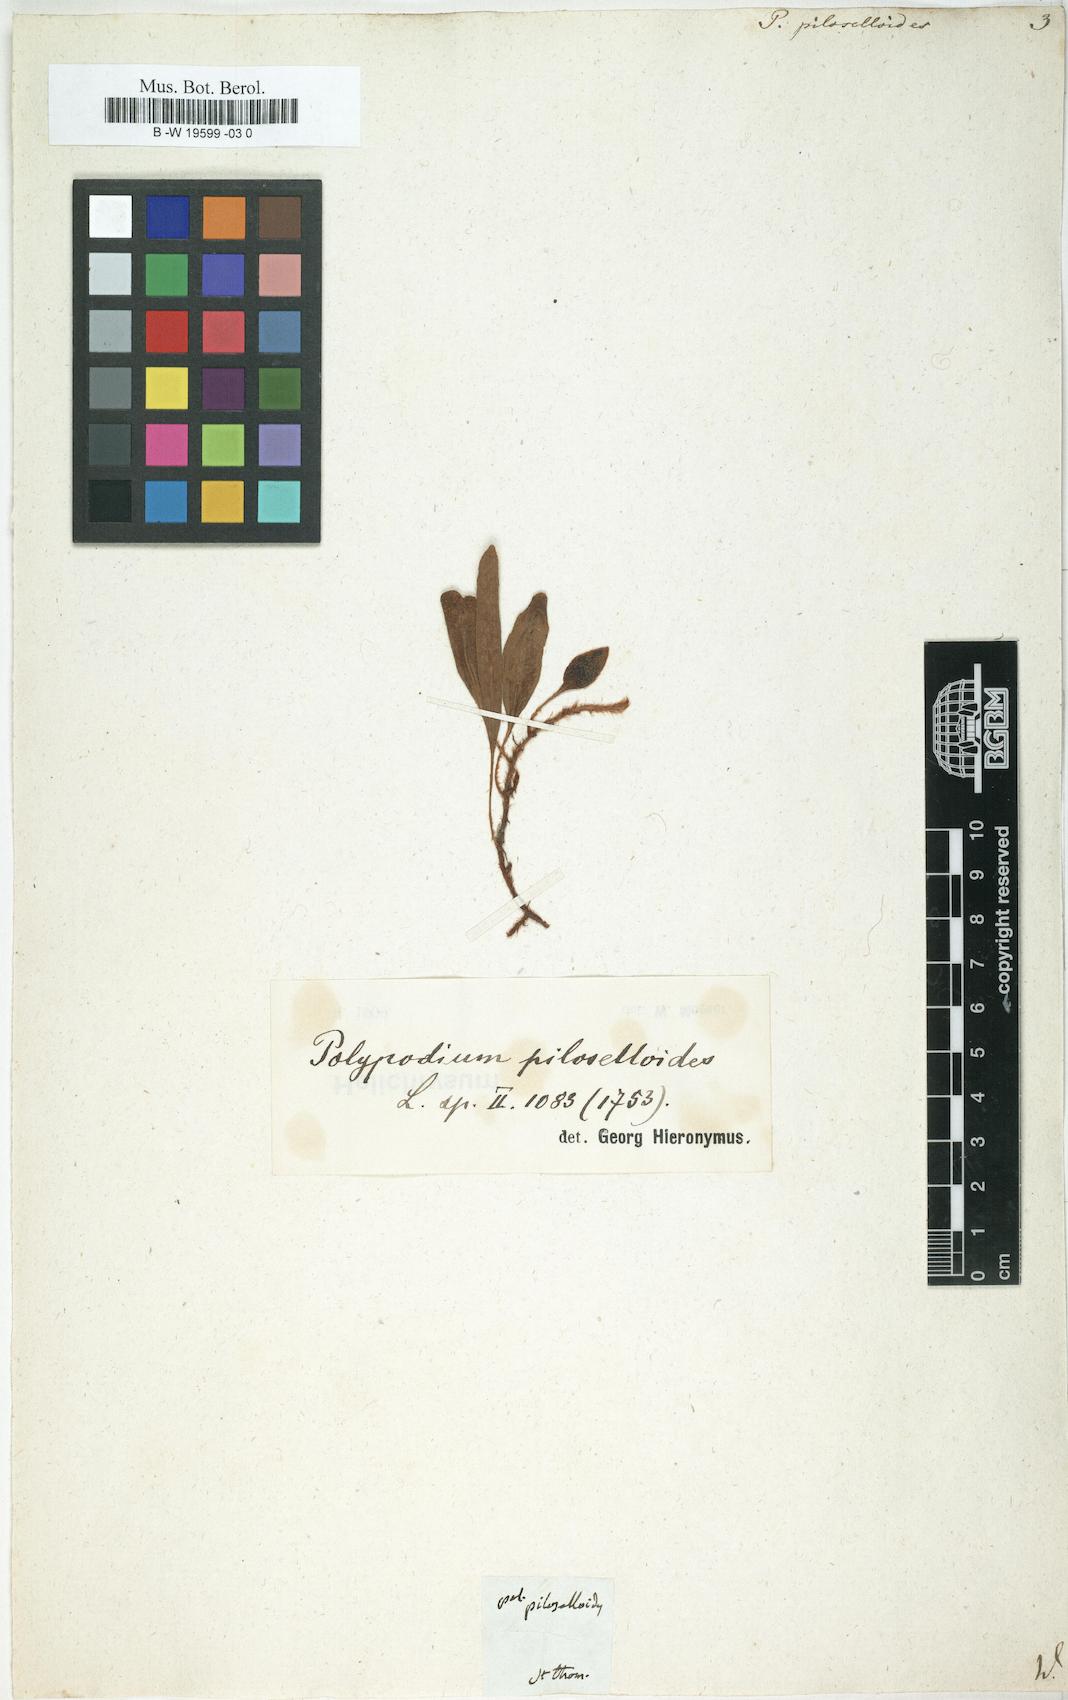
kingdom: Plantae
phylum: Tracheophyta
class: Polypodiopsida
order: Polypodiales
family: Polypodiaceae
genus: Polypodium
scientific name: Polypodium piloselloides
